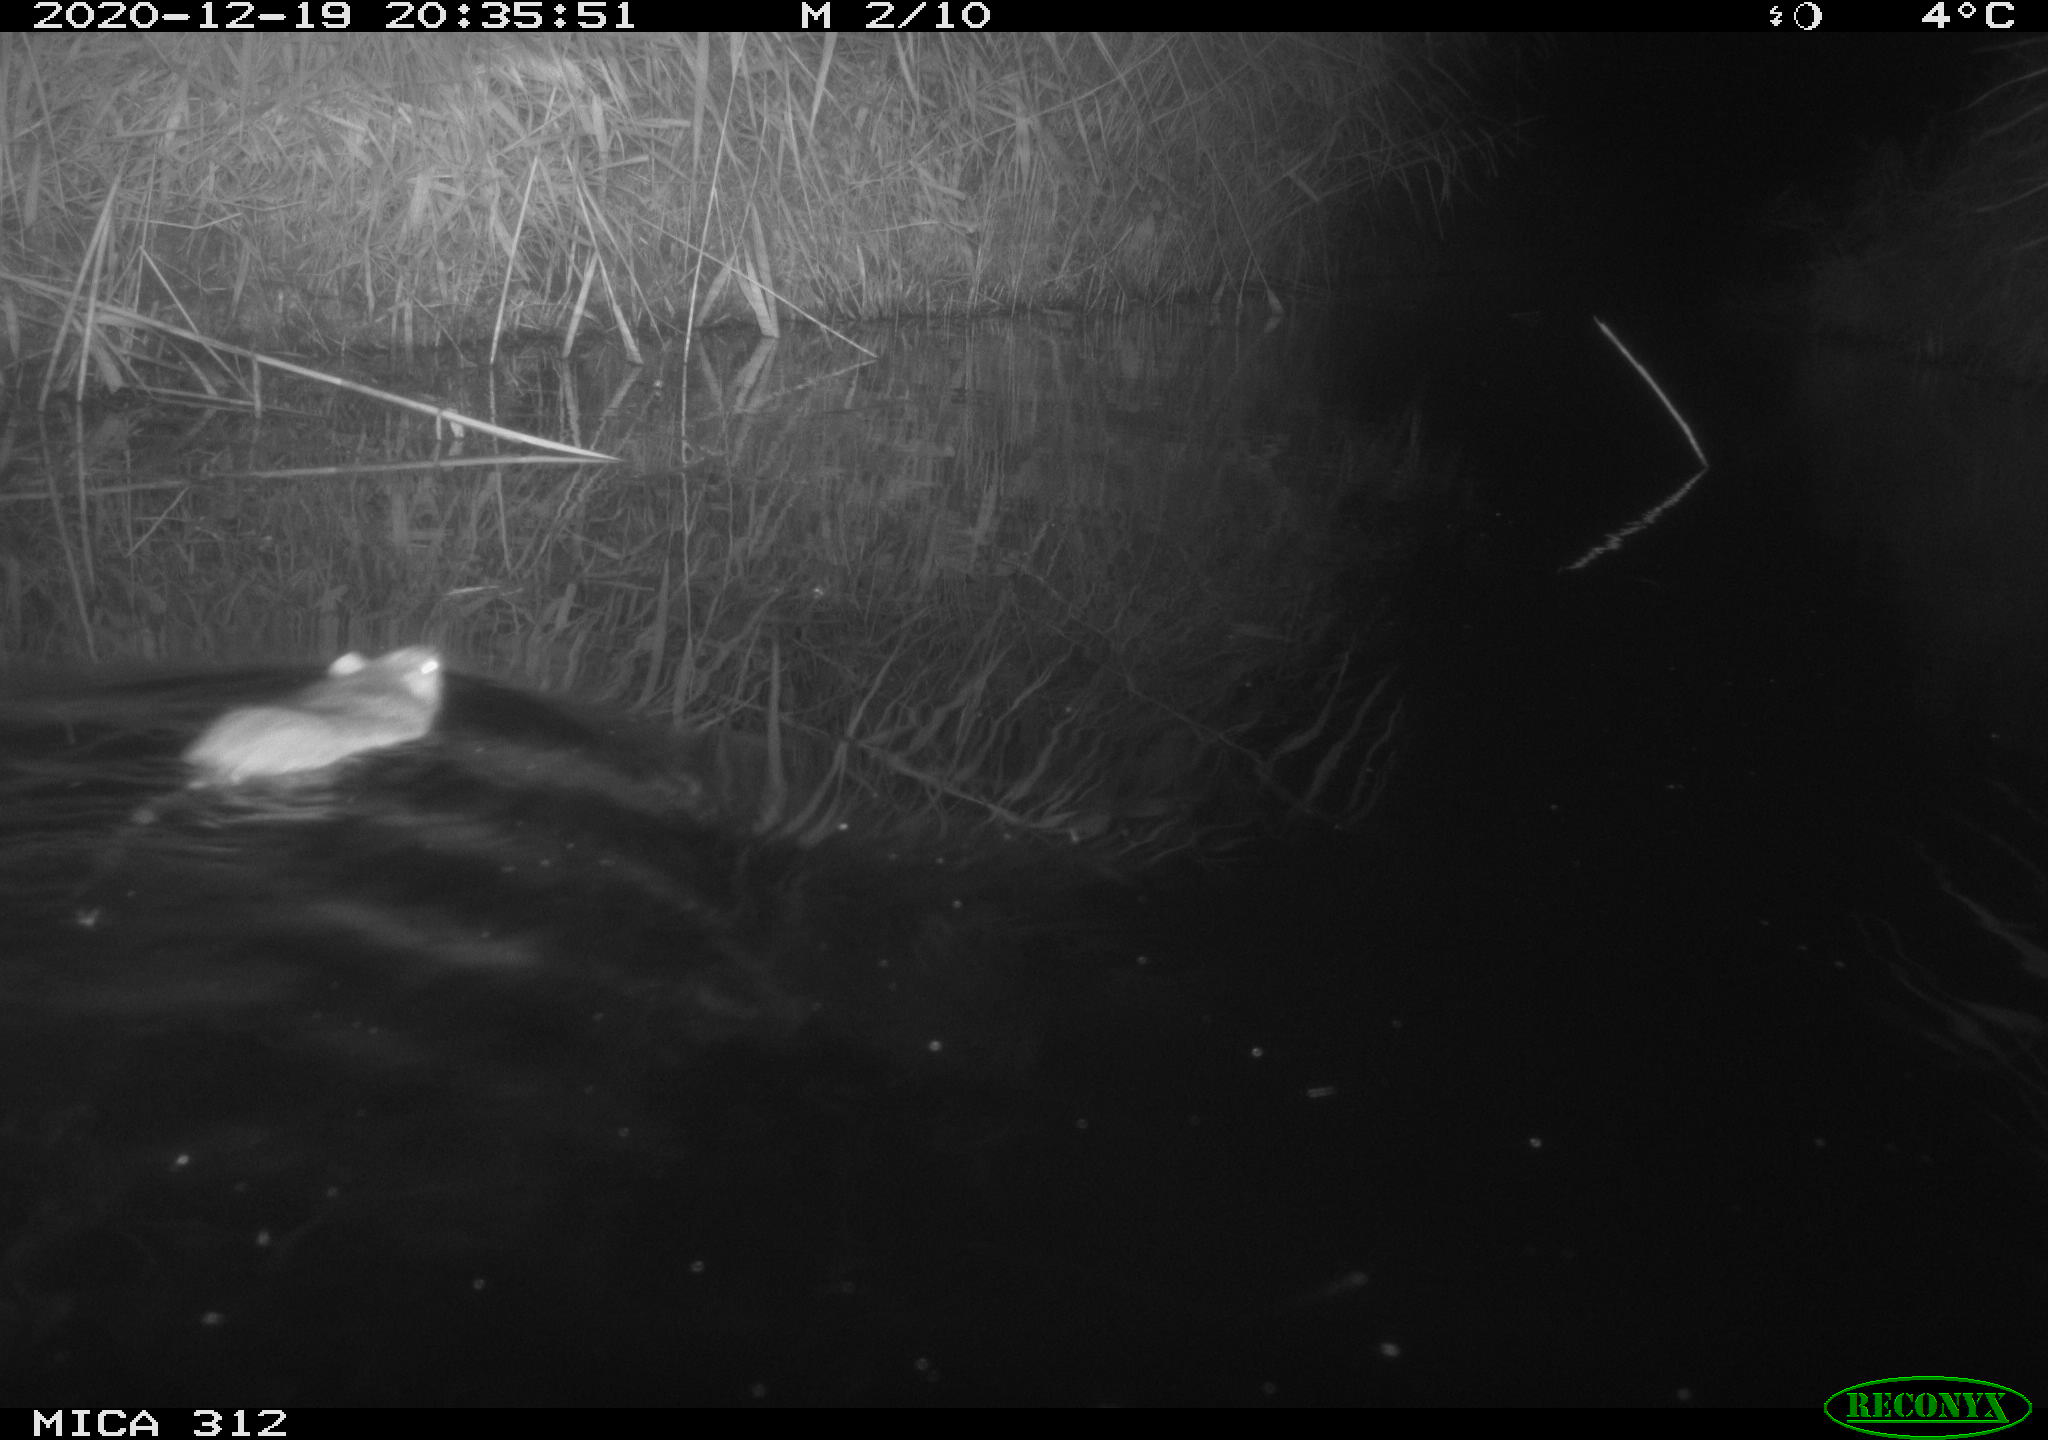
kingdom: Animalia
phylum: Chordata
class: Mammalia
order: Rodentia
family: Muridae
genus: Rattus
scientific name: Rattus norvegicus
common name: Brown rat
